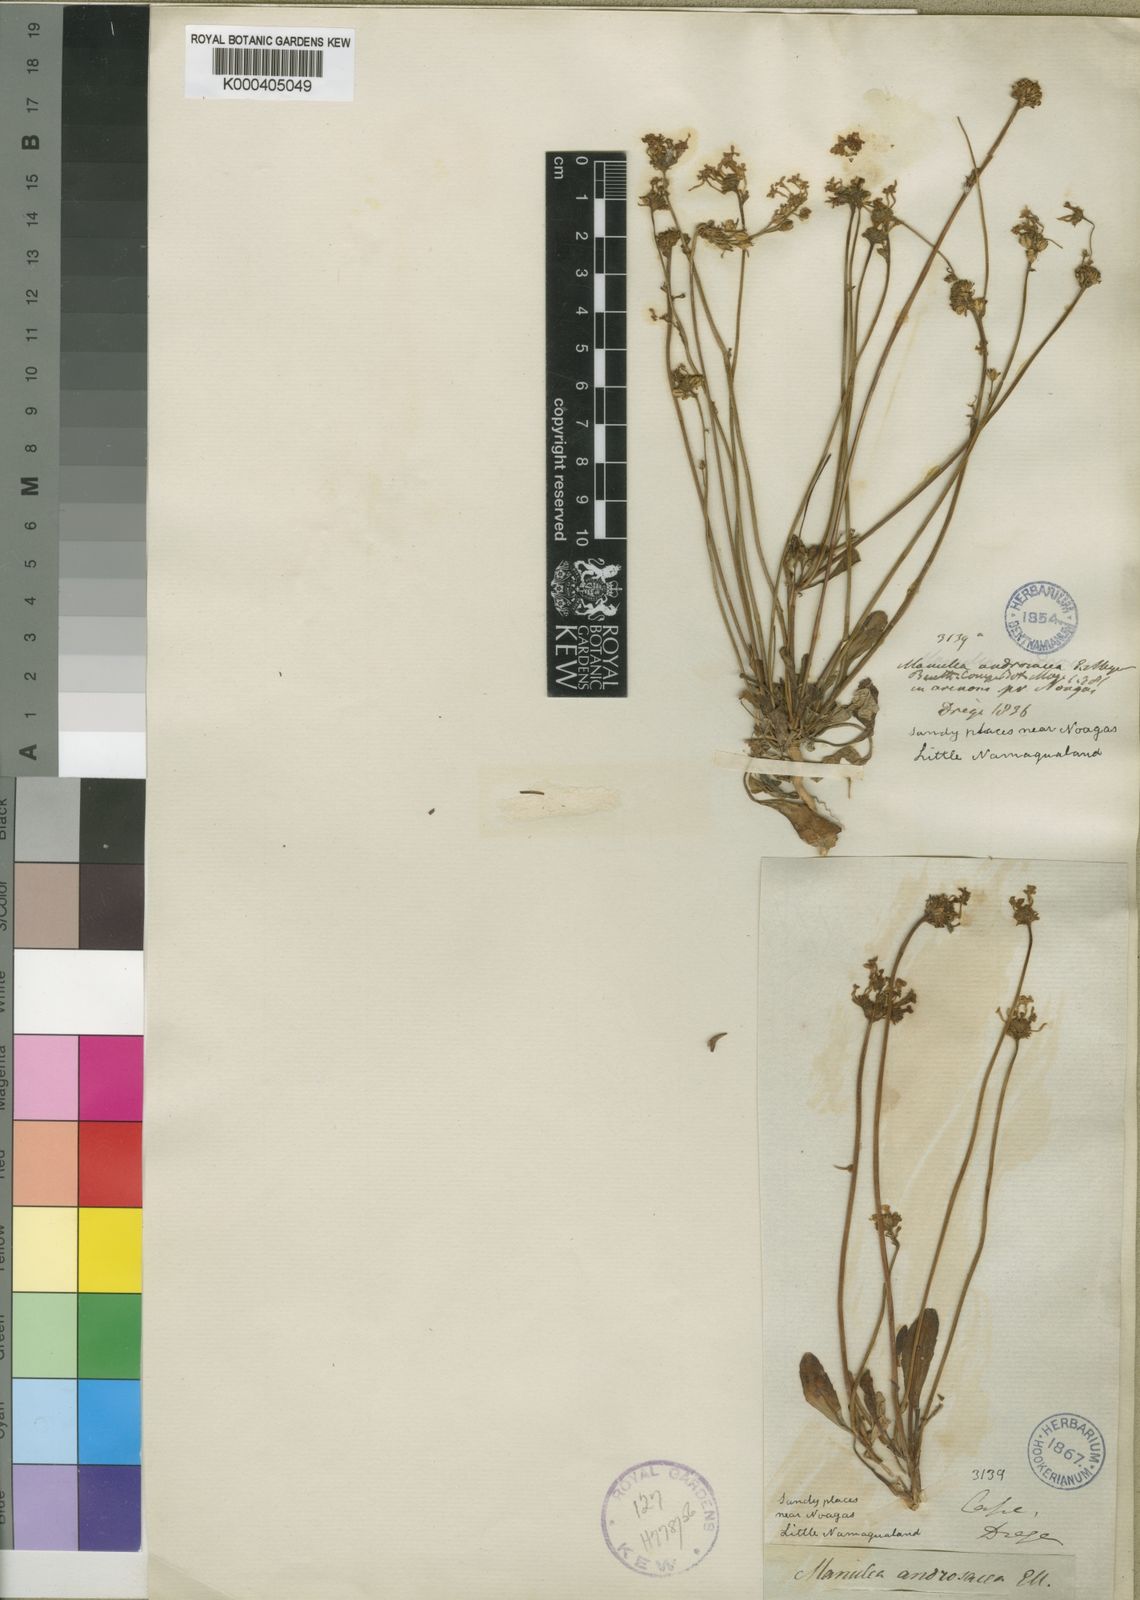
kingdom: Plantae
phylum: Tracheophyta
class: Magnoliopsida
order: Lamiales
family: Scrophulariaceae
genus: Manulea
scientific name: Manulea androsacea
